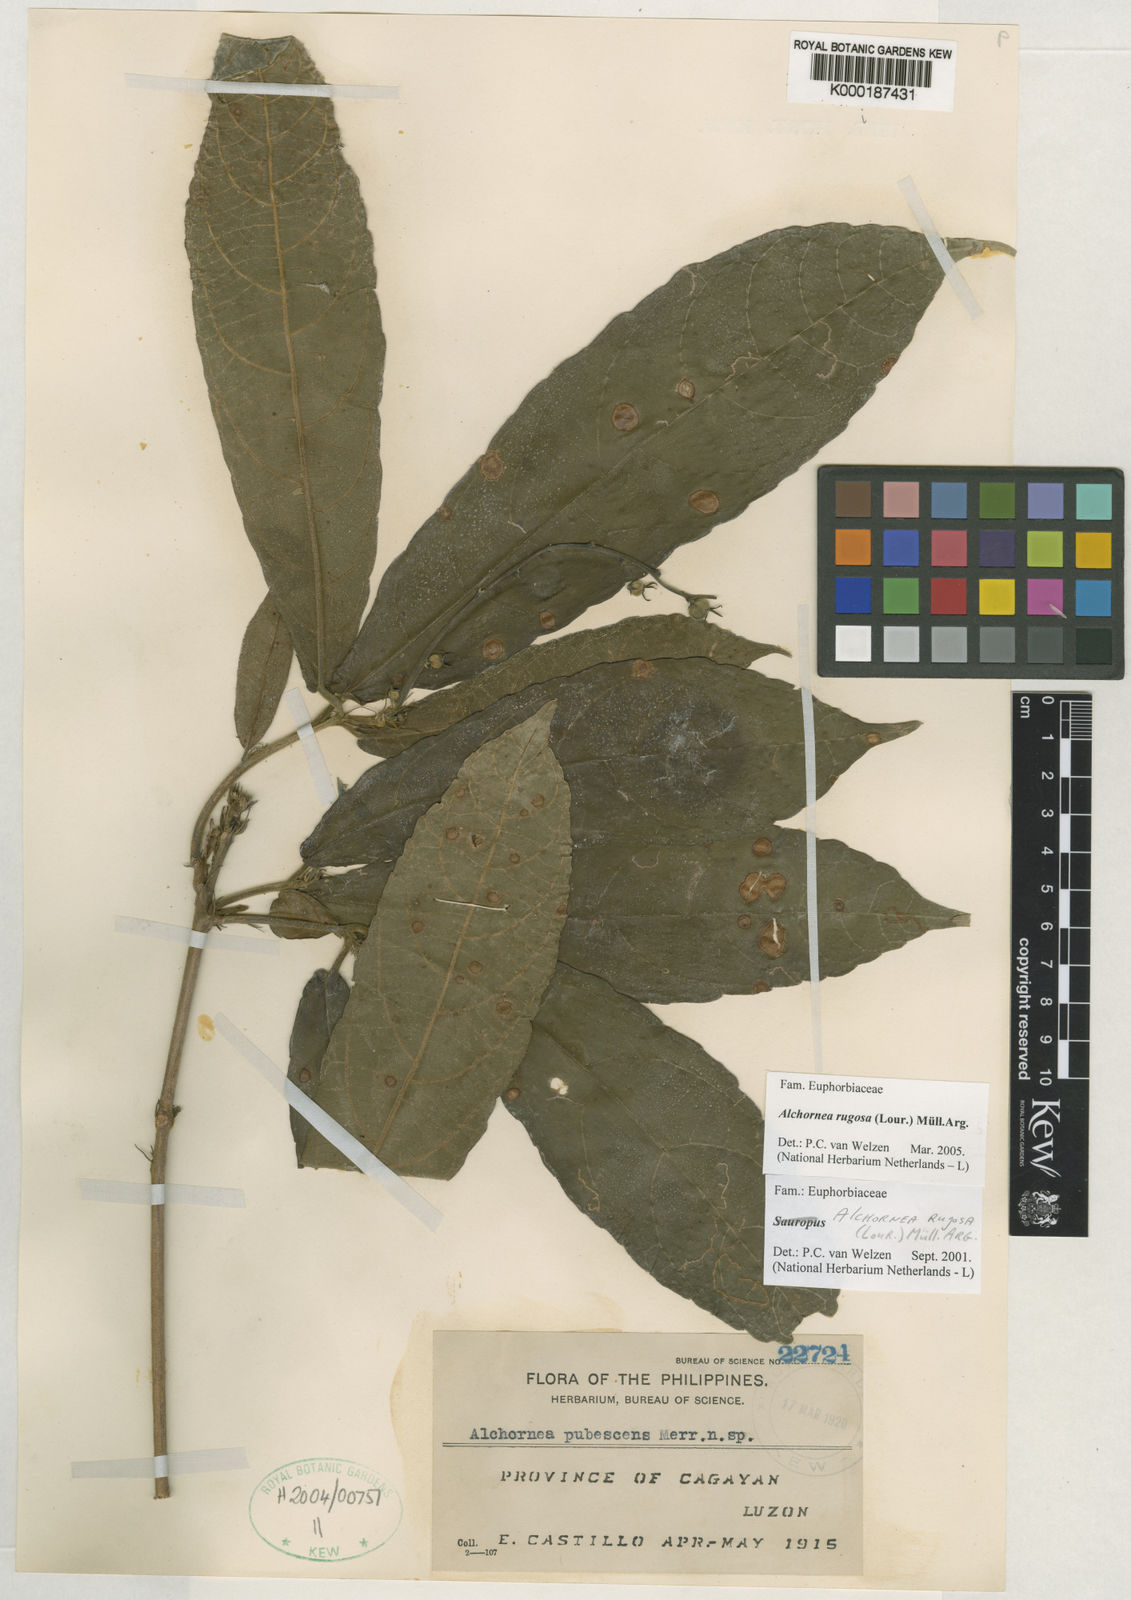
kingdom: Plantae
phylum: Tracheophyta
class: Magnoliopsida
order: Malpighiales
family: Euphorbiaceae
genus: Alchornea
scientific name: Alchornea
